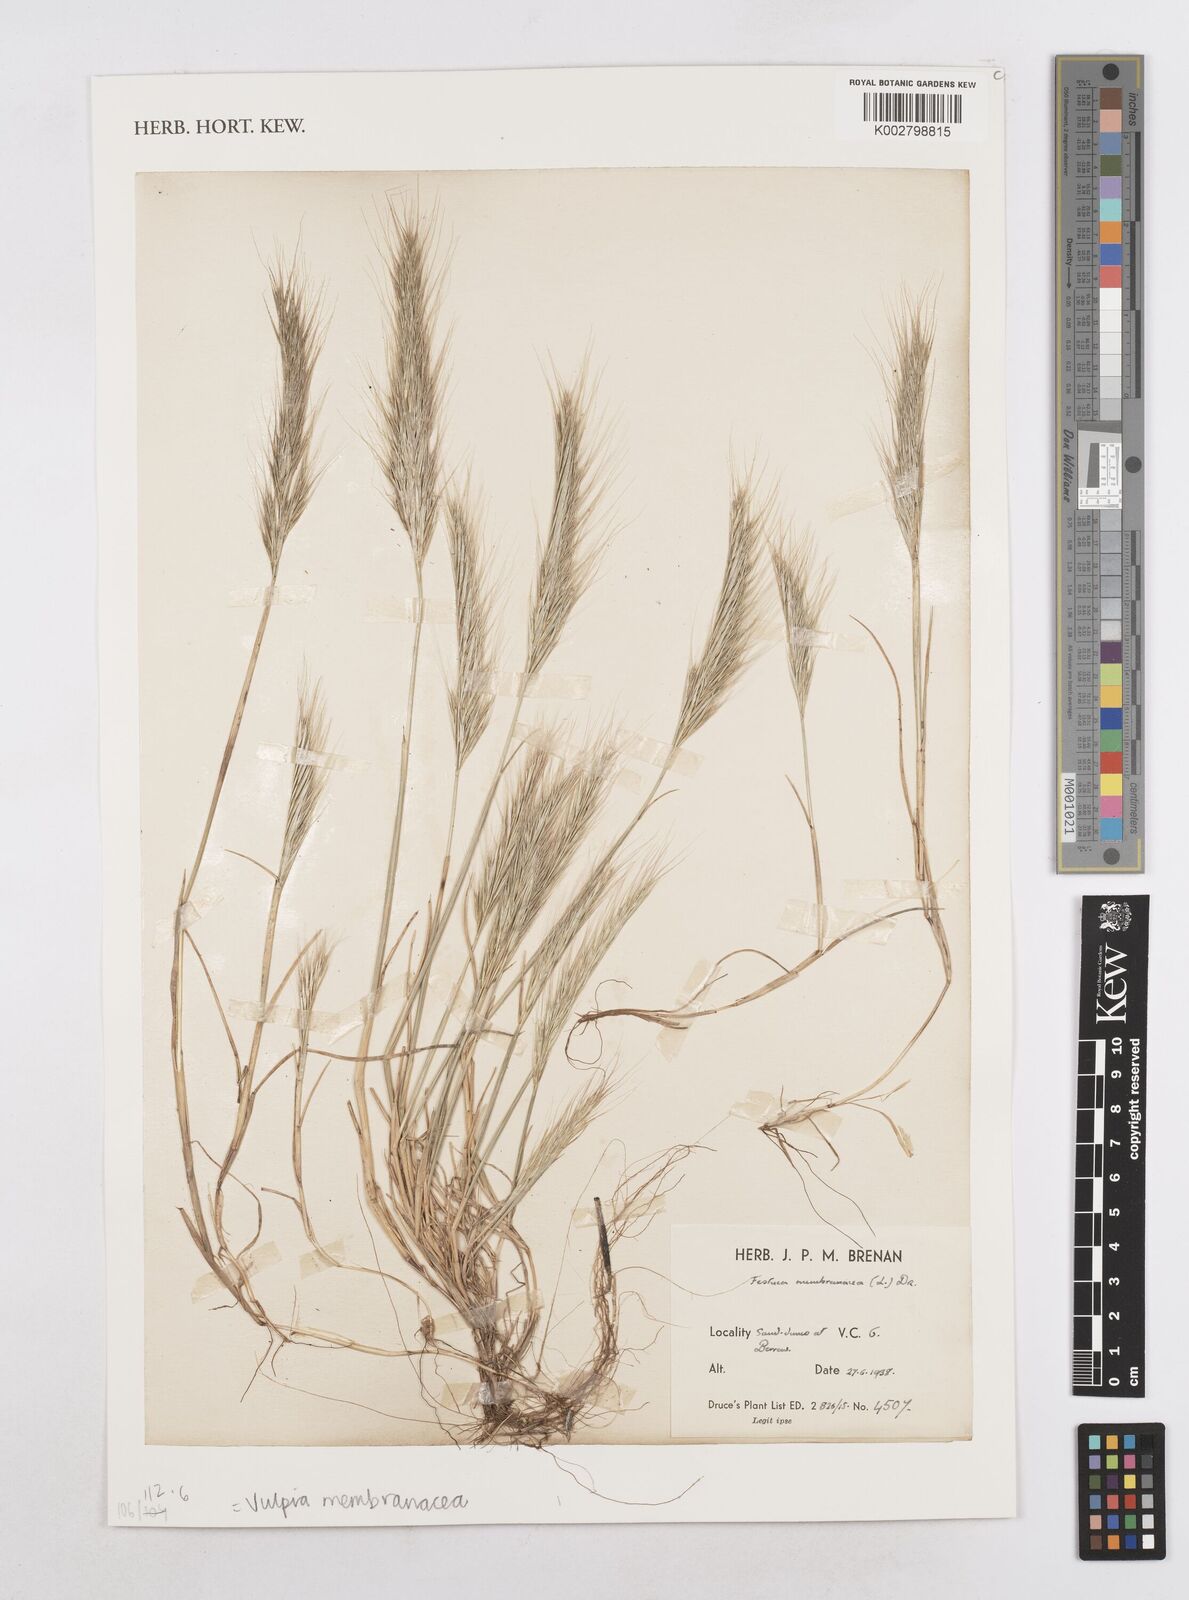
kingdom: Plantae
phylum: Tracheophyta
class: Liliopsida
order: Poales
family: Poaceae
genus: Festuca
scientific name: Festuca membranacea
